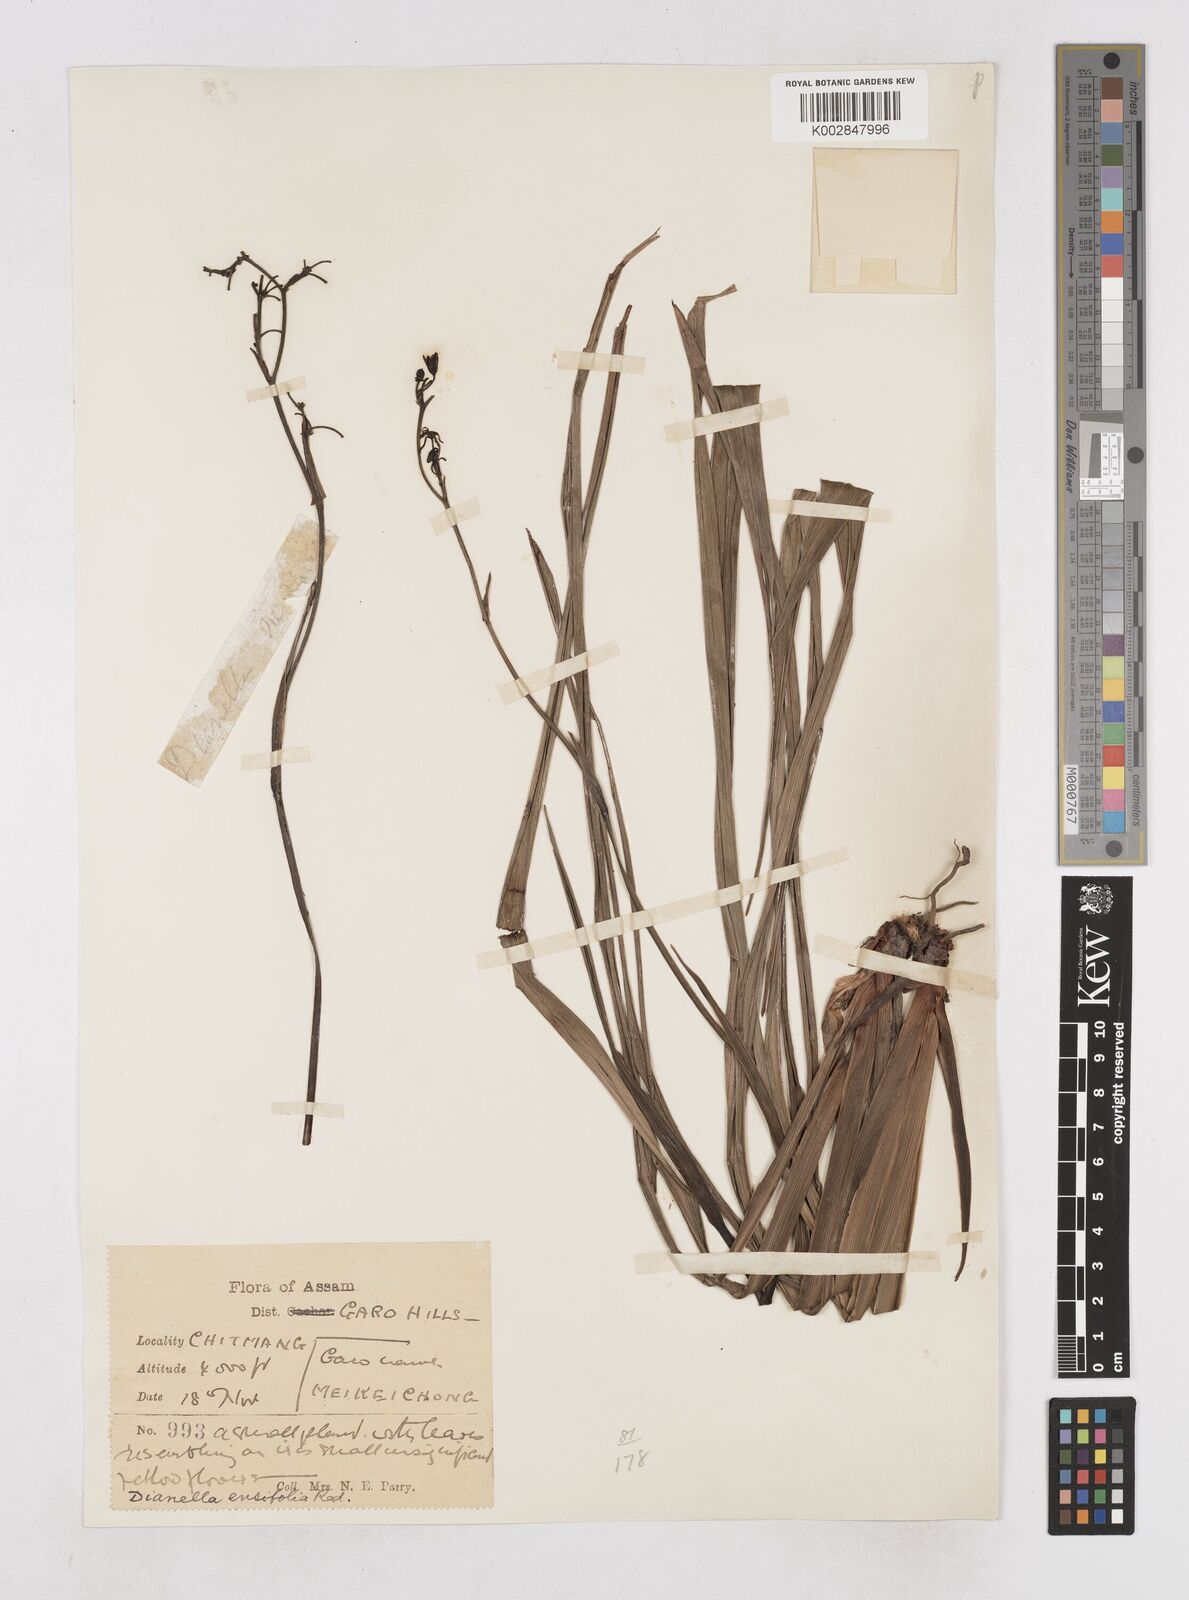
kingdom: Plantae
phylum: Tracheophyta
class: Liliopsida
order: Asparagales
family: Asphodelaceae
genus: Dianella
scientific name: Dianella ensifolia
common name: New zealand lilyplant
